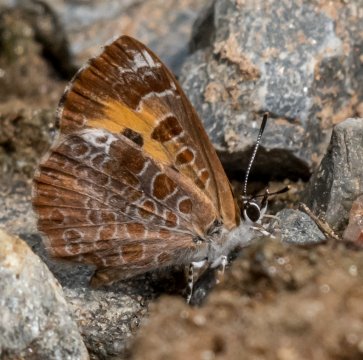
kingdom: Animalia
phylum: Arthropoda
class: Insecta
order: Lepidoptera
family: Lycaenidae
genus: Feniseca
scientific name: Feniseca tarquinius
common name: Harvester
